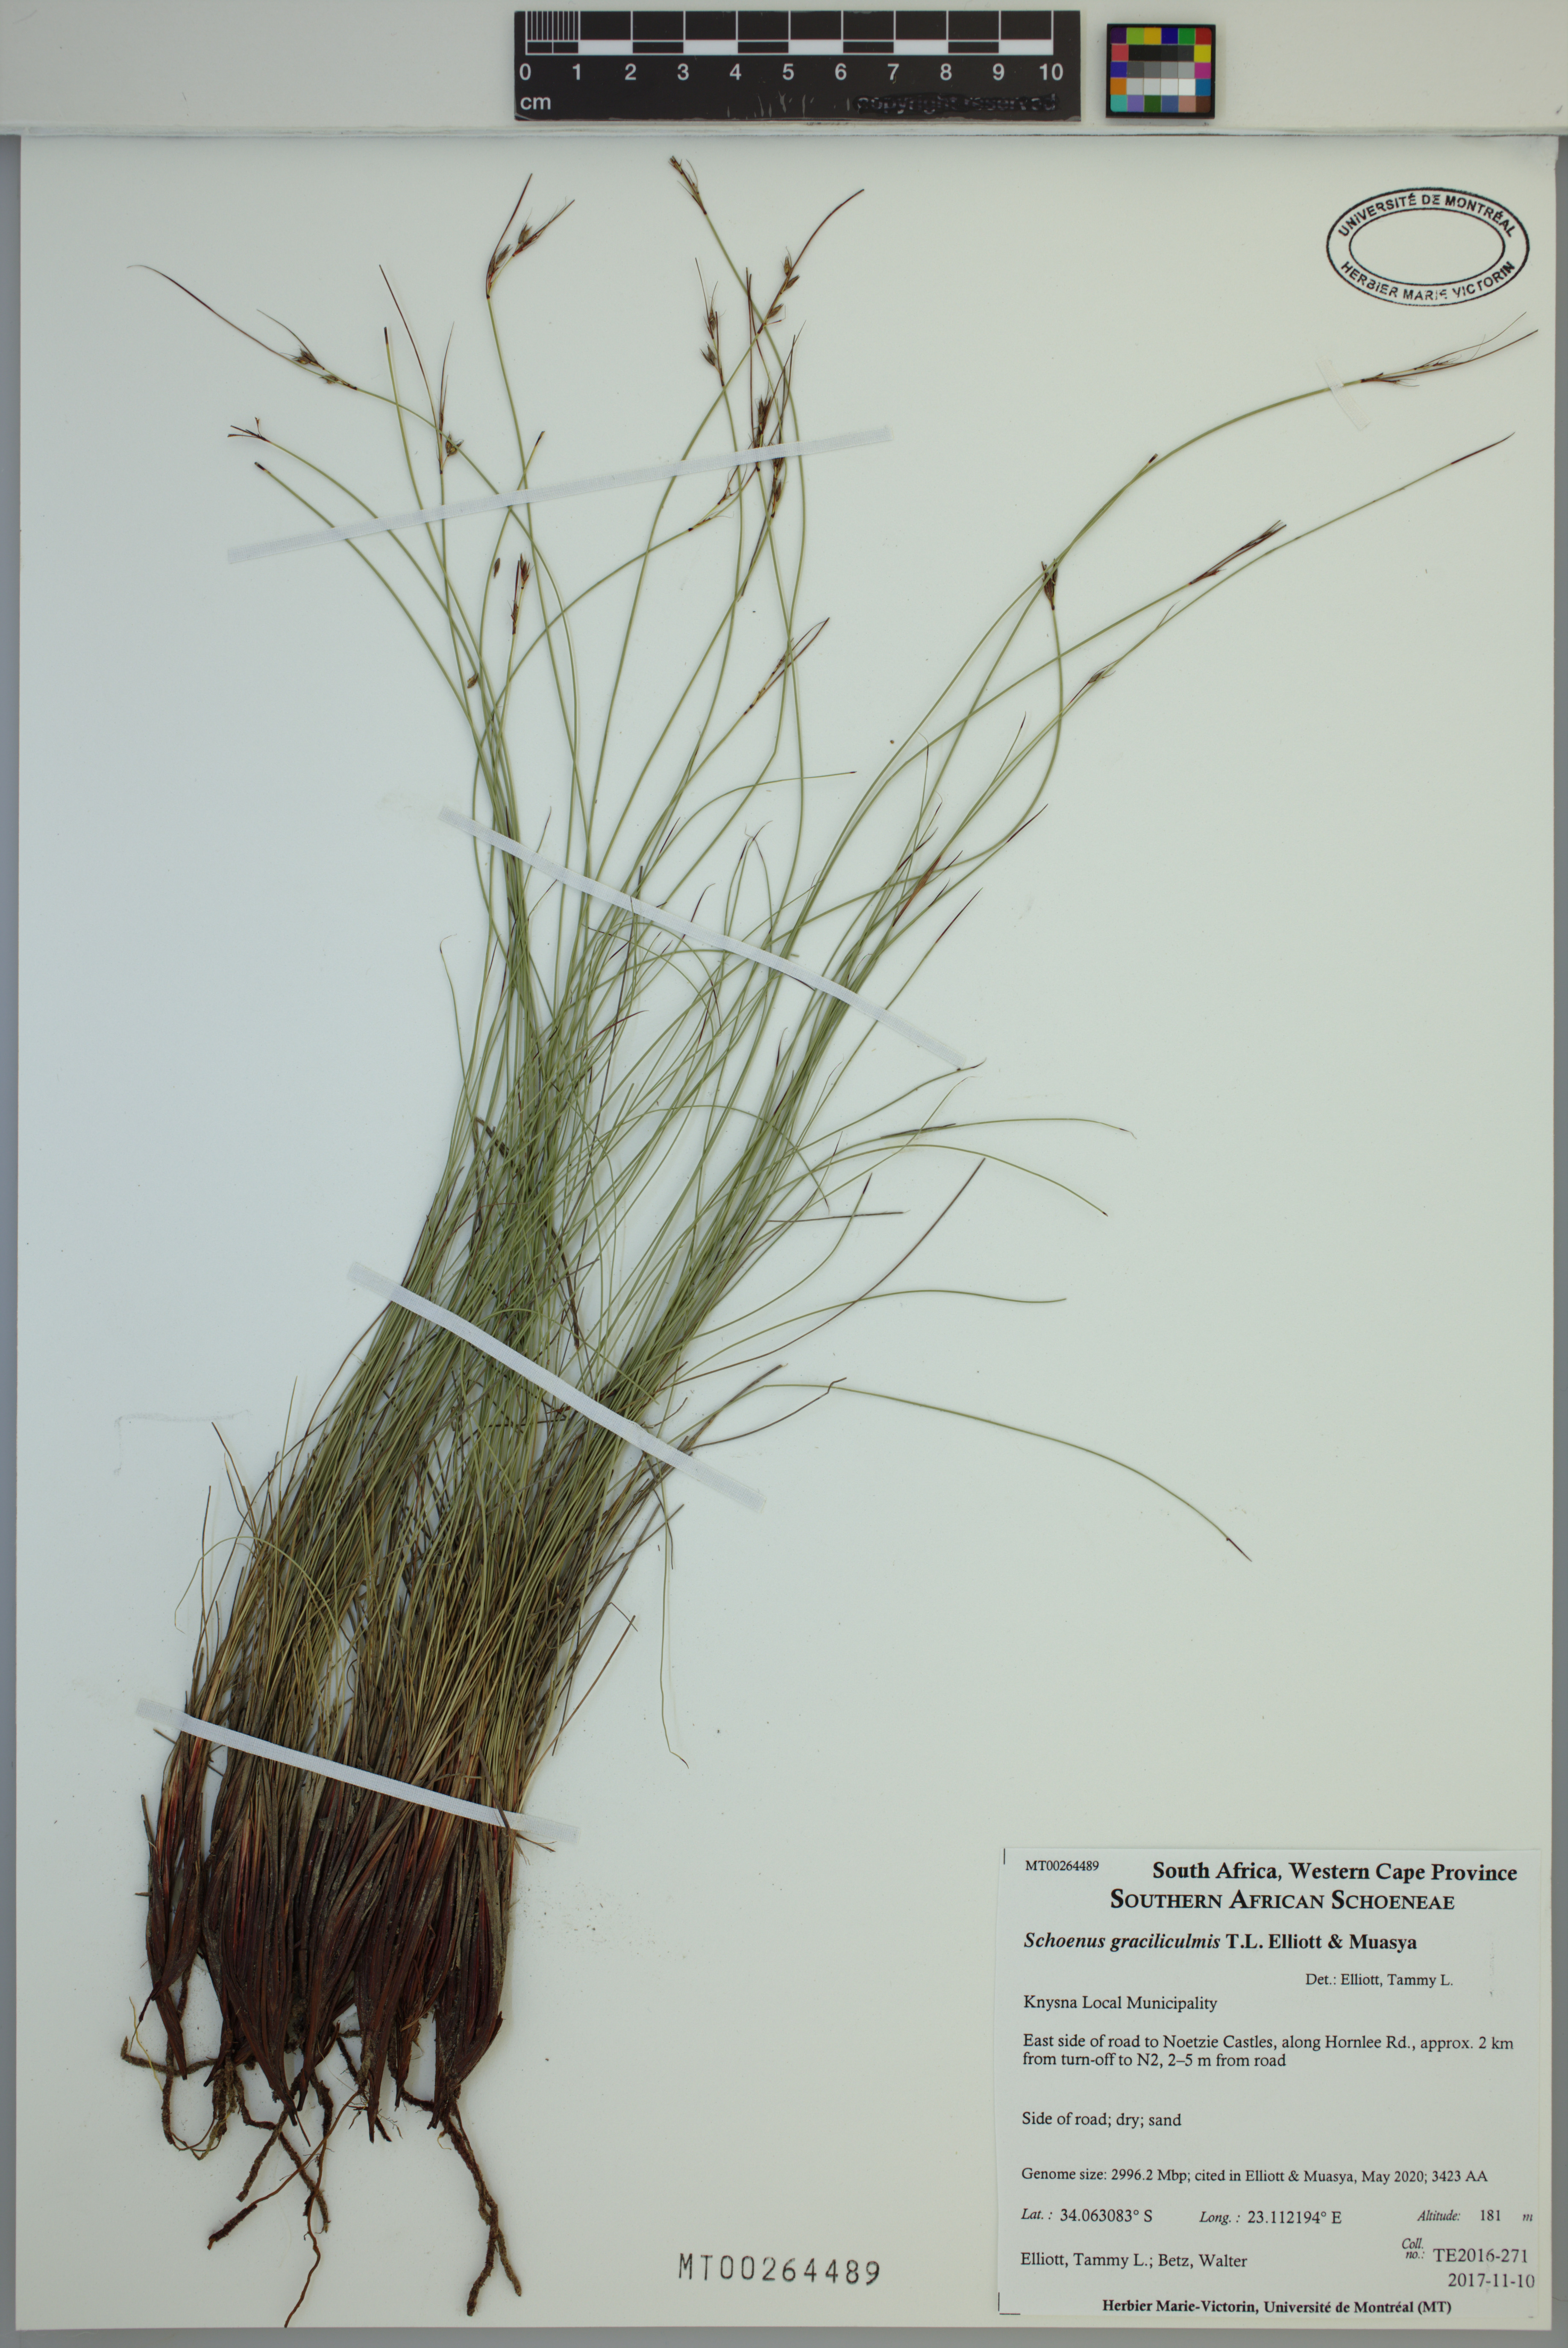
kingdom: Plantae
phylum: Tracheophyta
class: Liliopsida
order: Poales
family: Cyperaceae
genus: Schoenus
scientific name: Schoenus graciliculmis
